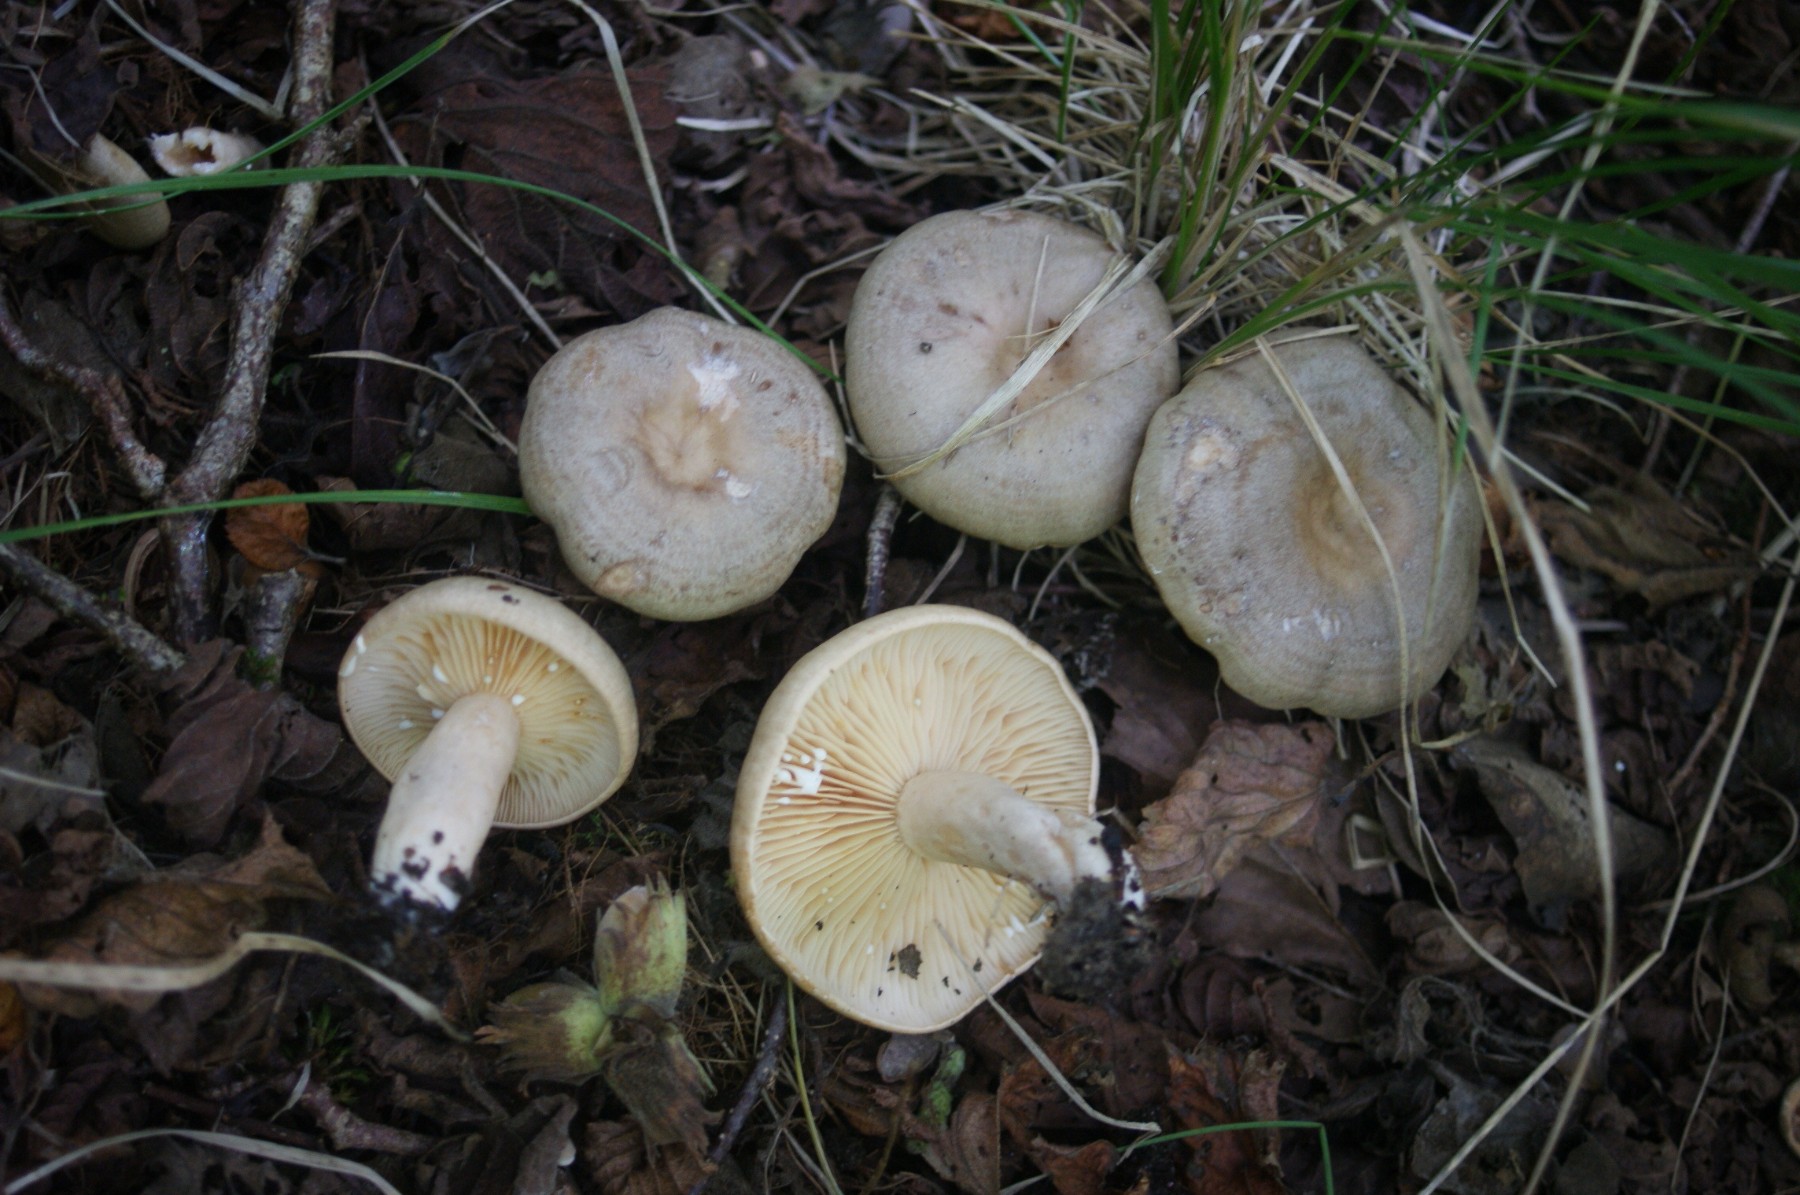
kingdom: Fungi
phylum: Basidiomycota
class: Agaricomycetes
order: Russulales
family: Russulaceae
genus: Lactarius
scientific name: Lactarius pyrogalus
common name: hassel-mælkehat
